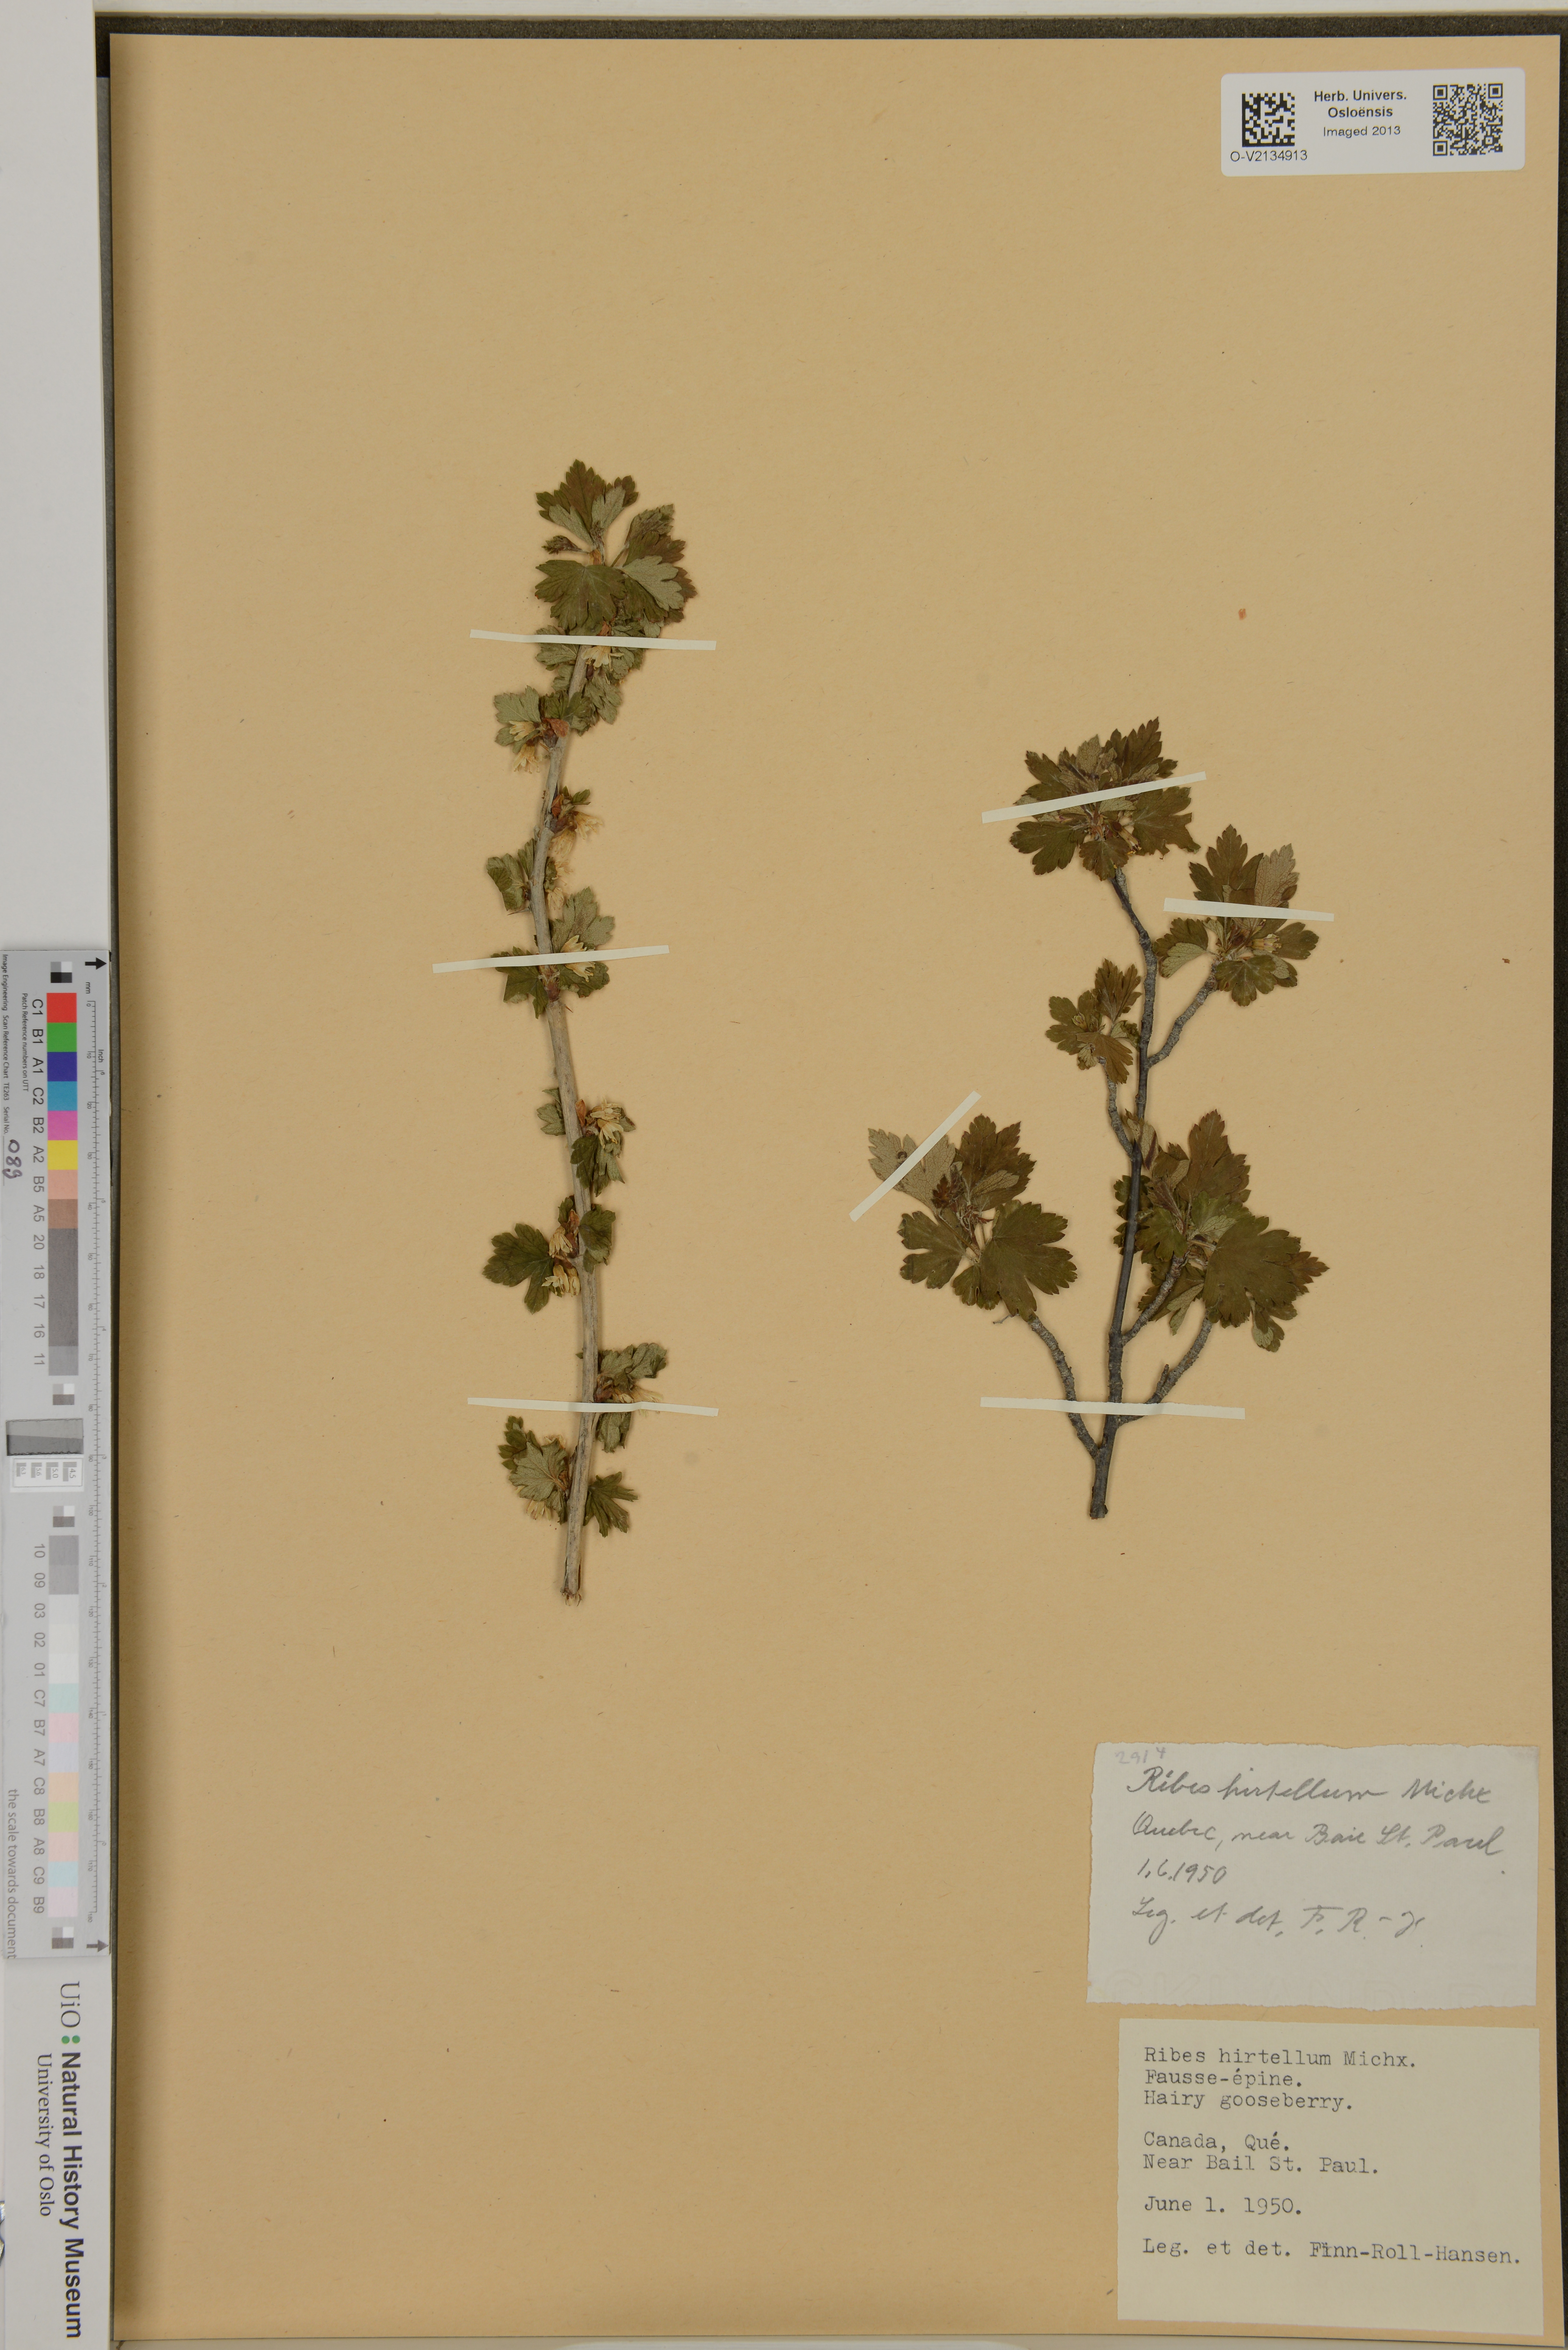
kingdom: Plantae
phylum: Tracheophyta
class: Magnoliopsida
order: Saxifragales
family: Grossulariaceae
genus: Ribes
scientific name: Ribes hirtellum
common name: Hairy gooseberry
